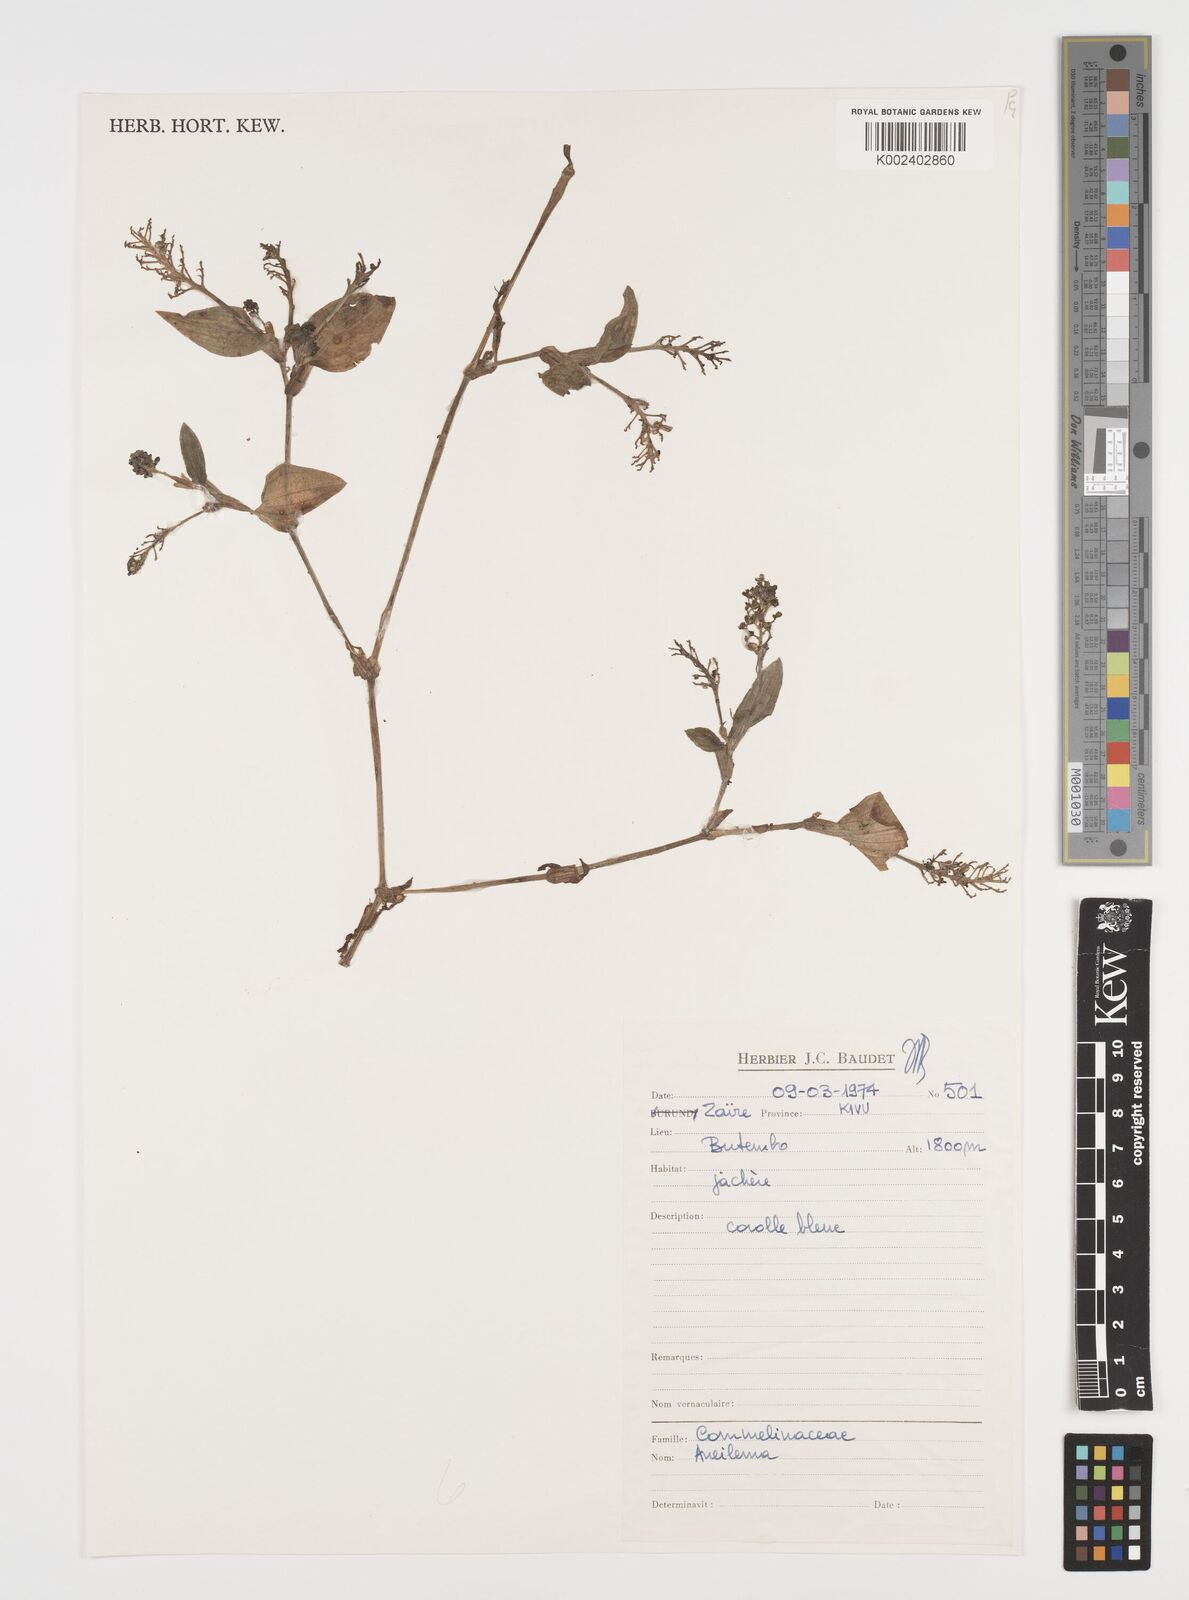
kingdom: Plantae
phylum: Tracheophyta
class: Liliopsida
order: Commelinales
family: Commelinaceae
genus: Aneilema
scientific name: Aneilema
